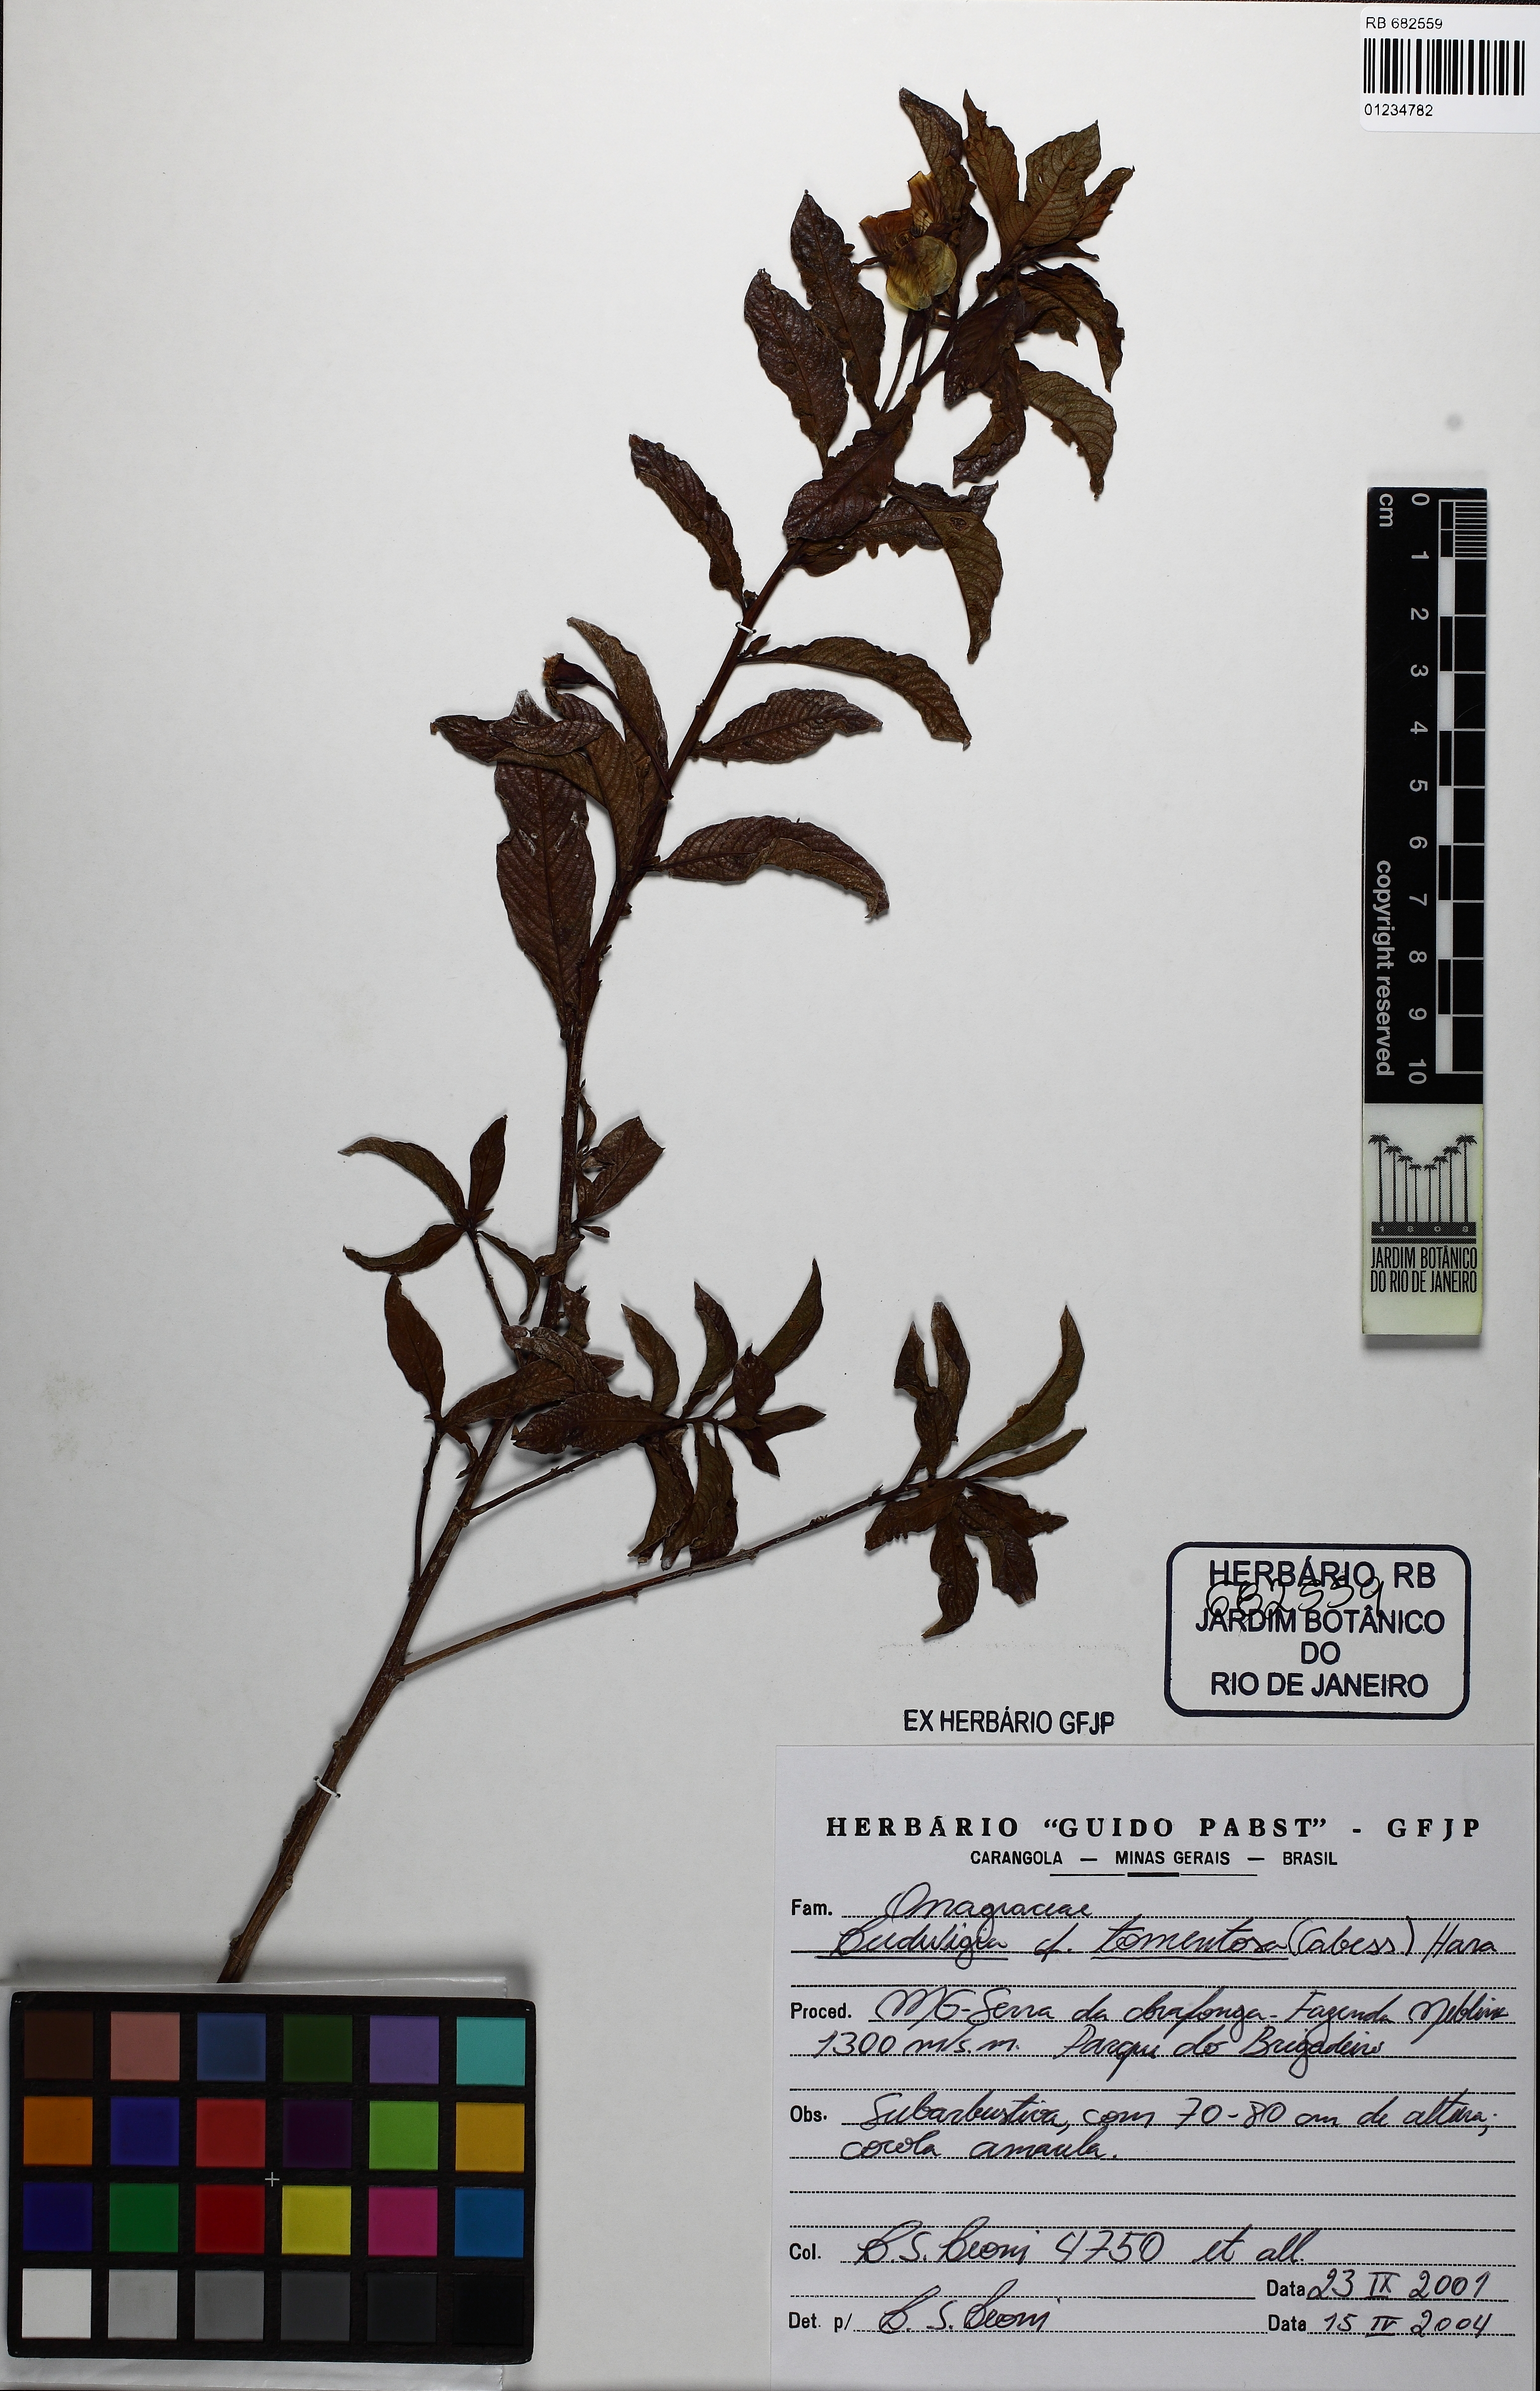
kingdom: Plantae
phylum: Tracheophyta
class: Magnoliopsida
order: Myrtales
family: Onagraceae
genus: Ludwigia
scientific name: Ludwigia tomentosa
